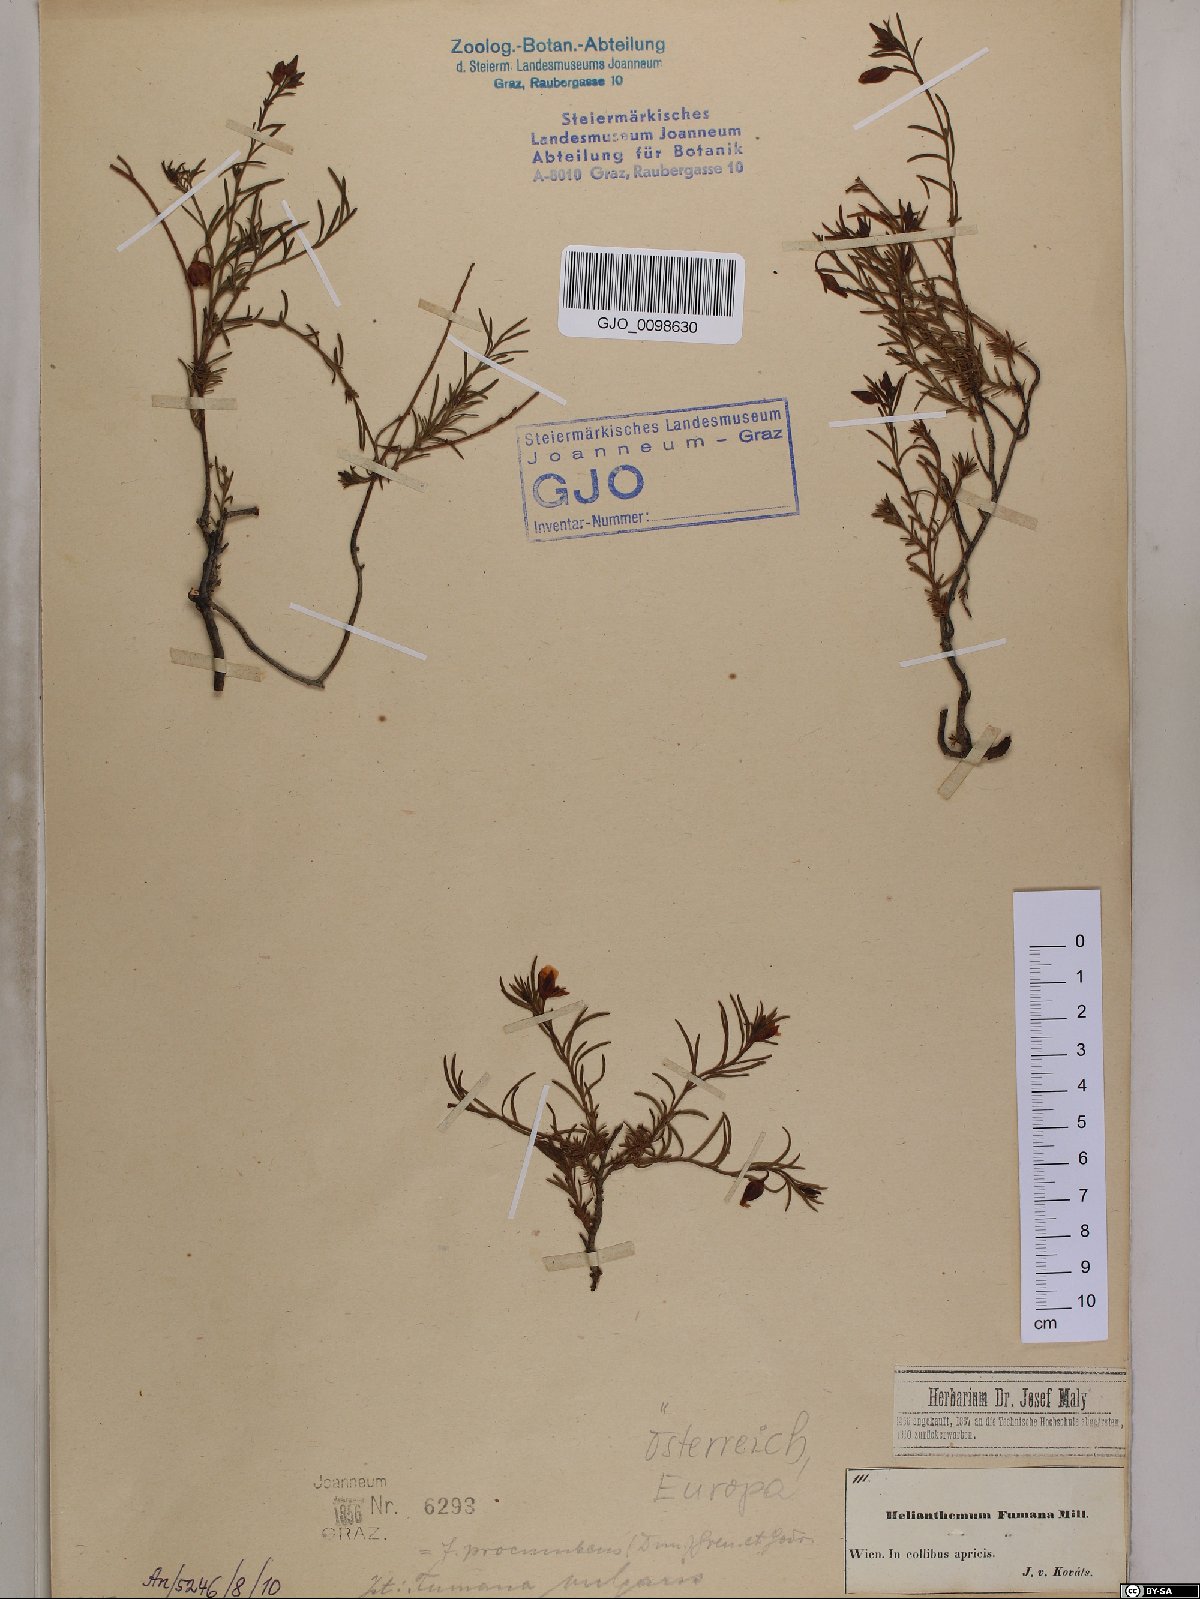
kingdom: Plantae
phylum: Tracheophyta
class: Magnoliopsida
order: Malvales
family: Cistaceae
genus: Fumana
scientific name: Fumana procumbens
